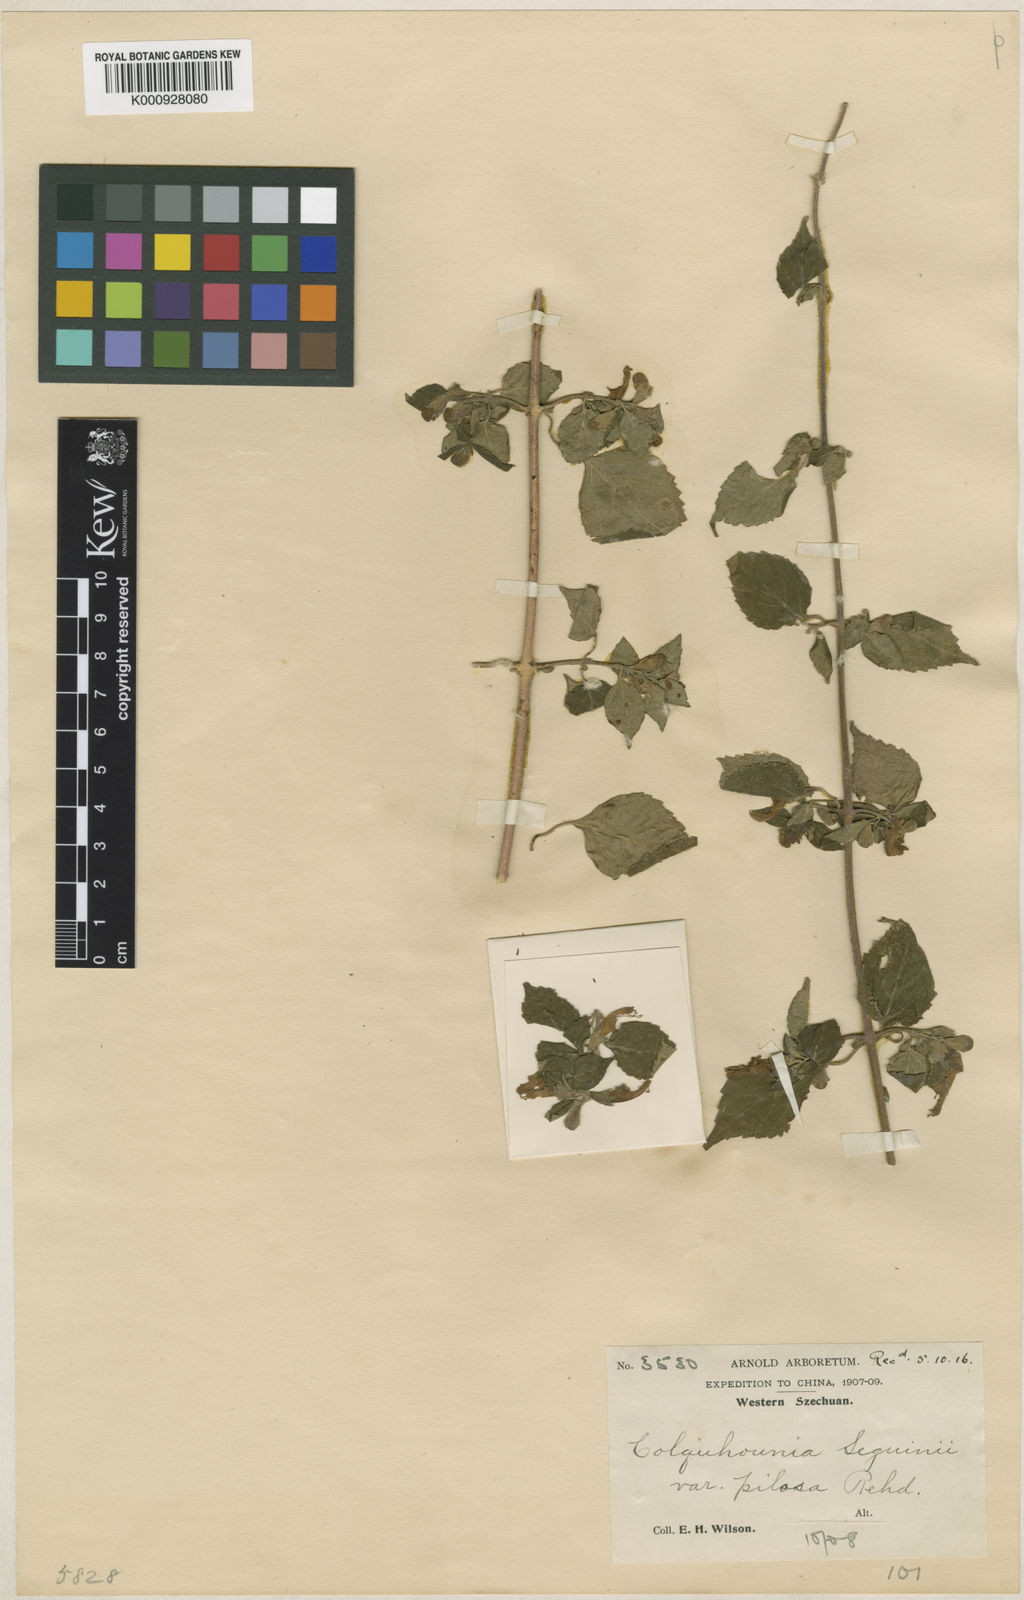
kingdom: Plantae
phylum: Tracheophyta
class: Magnoliopsida
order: Lamiales
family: Lamiaceae
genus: Colquhounia
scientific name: Colquhounia seguinii
